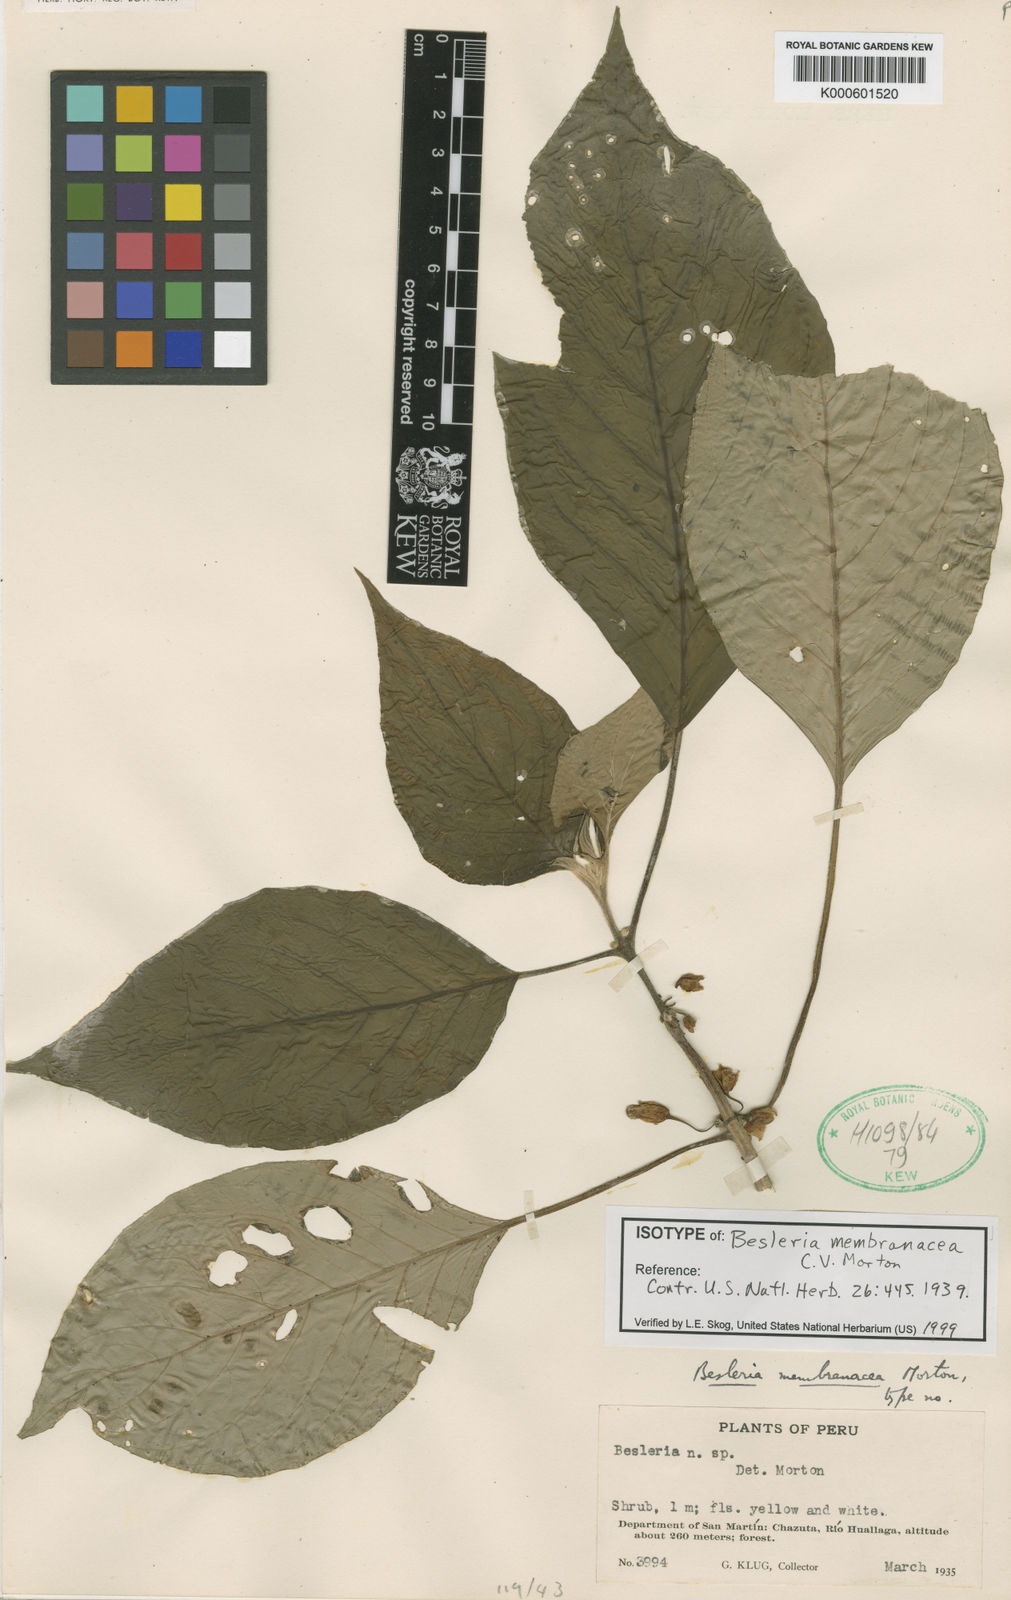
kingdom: Plantae
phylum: Tracheophyta
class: Magnoliopsida
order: Lamiales
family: Gesneriaceae
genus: Besleria
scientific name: Besleria membranacea
